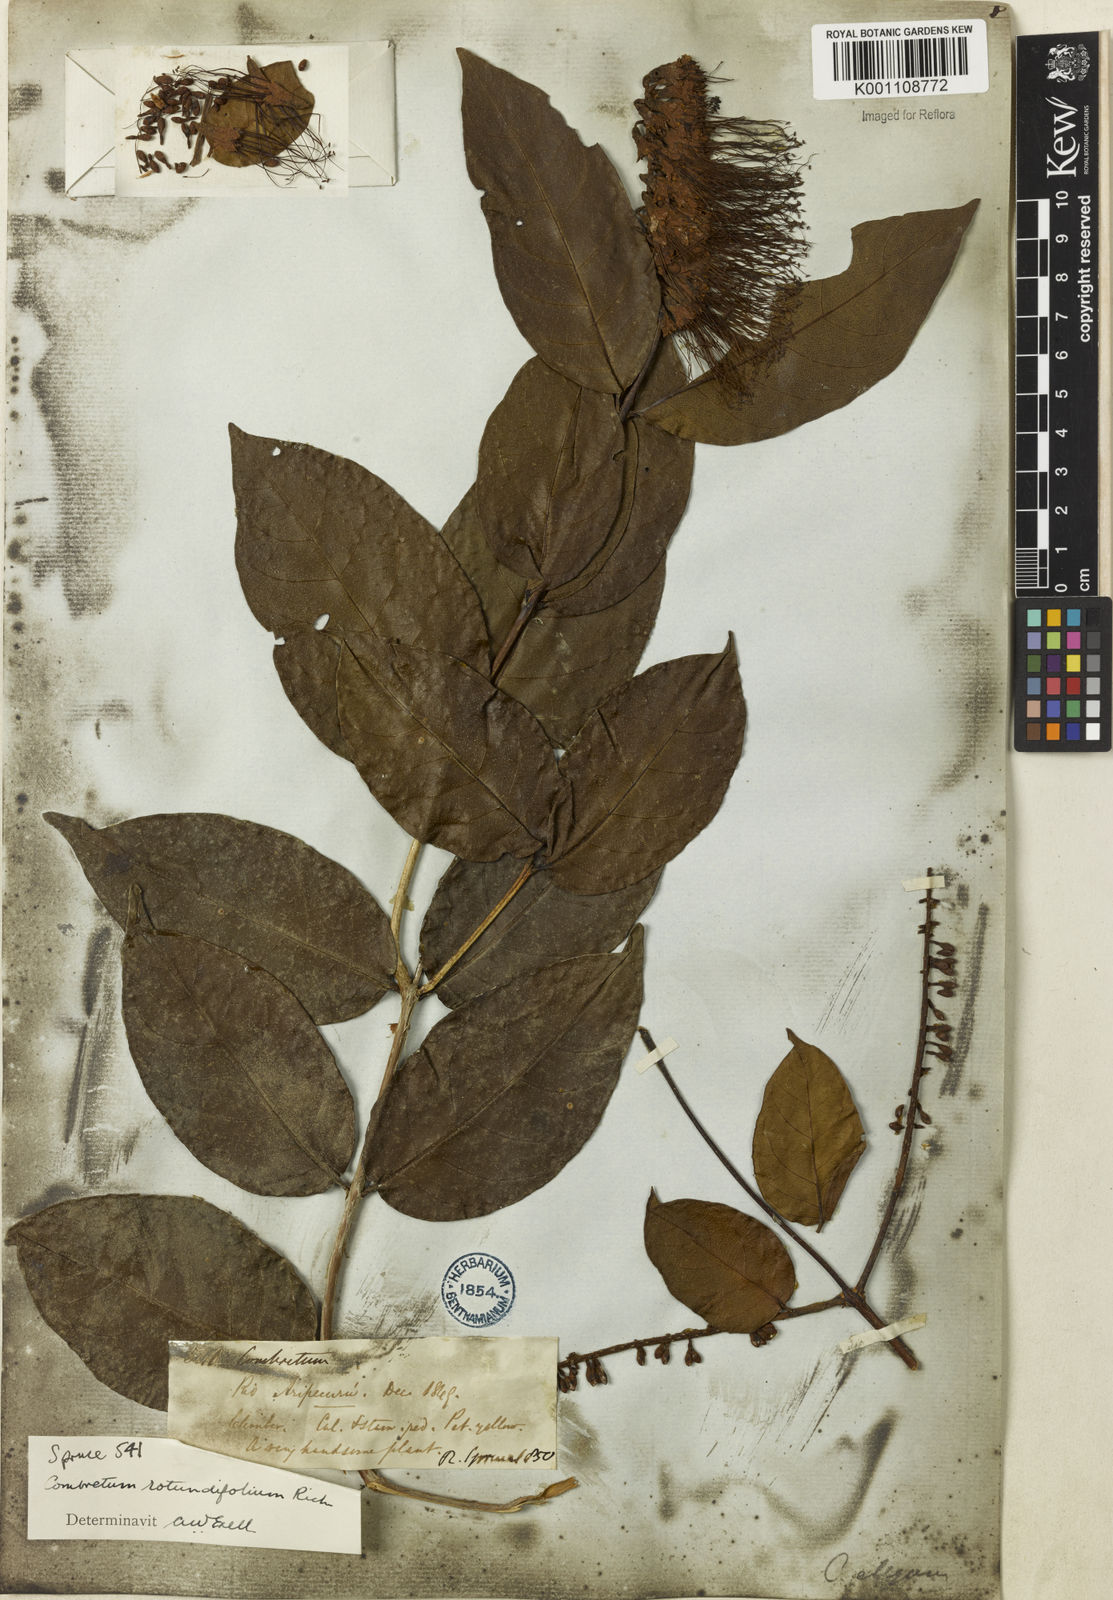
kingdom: Plantae
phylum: Tracheophyta
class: Magnoliopsida
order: Myrtales
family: Combretaceae
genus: Combretum
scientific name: Combretum rotundifolium
